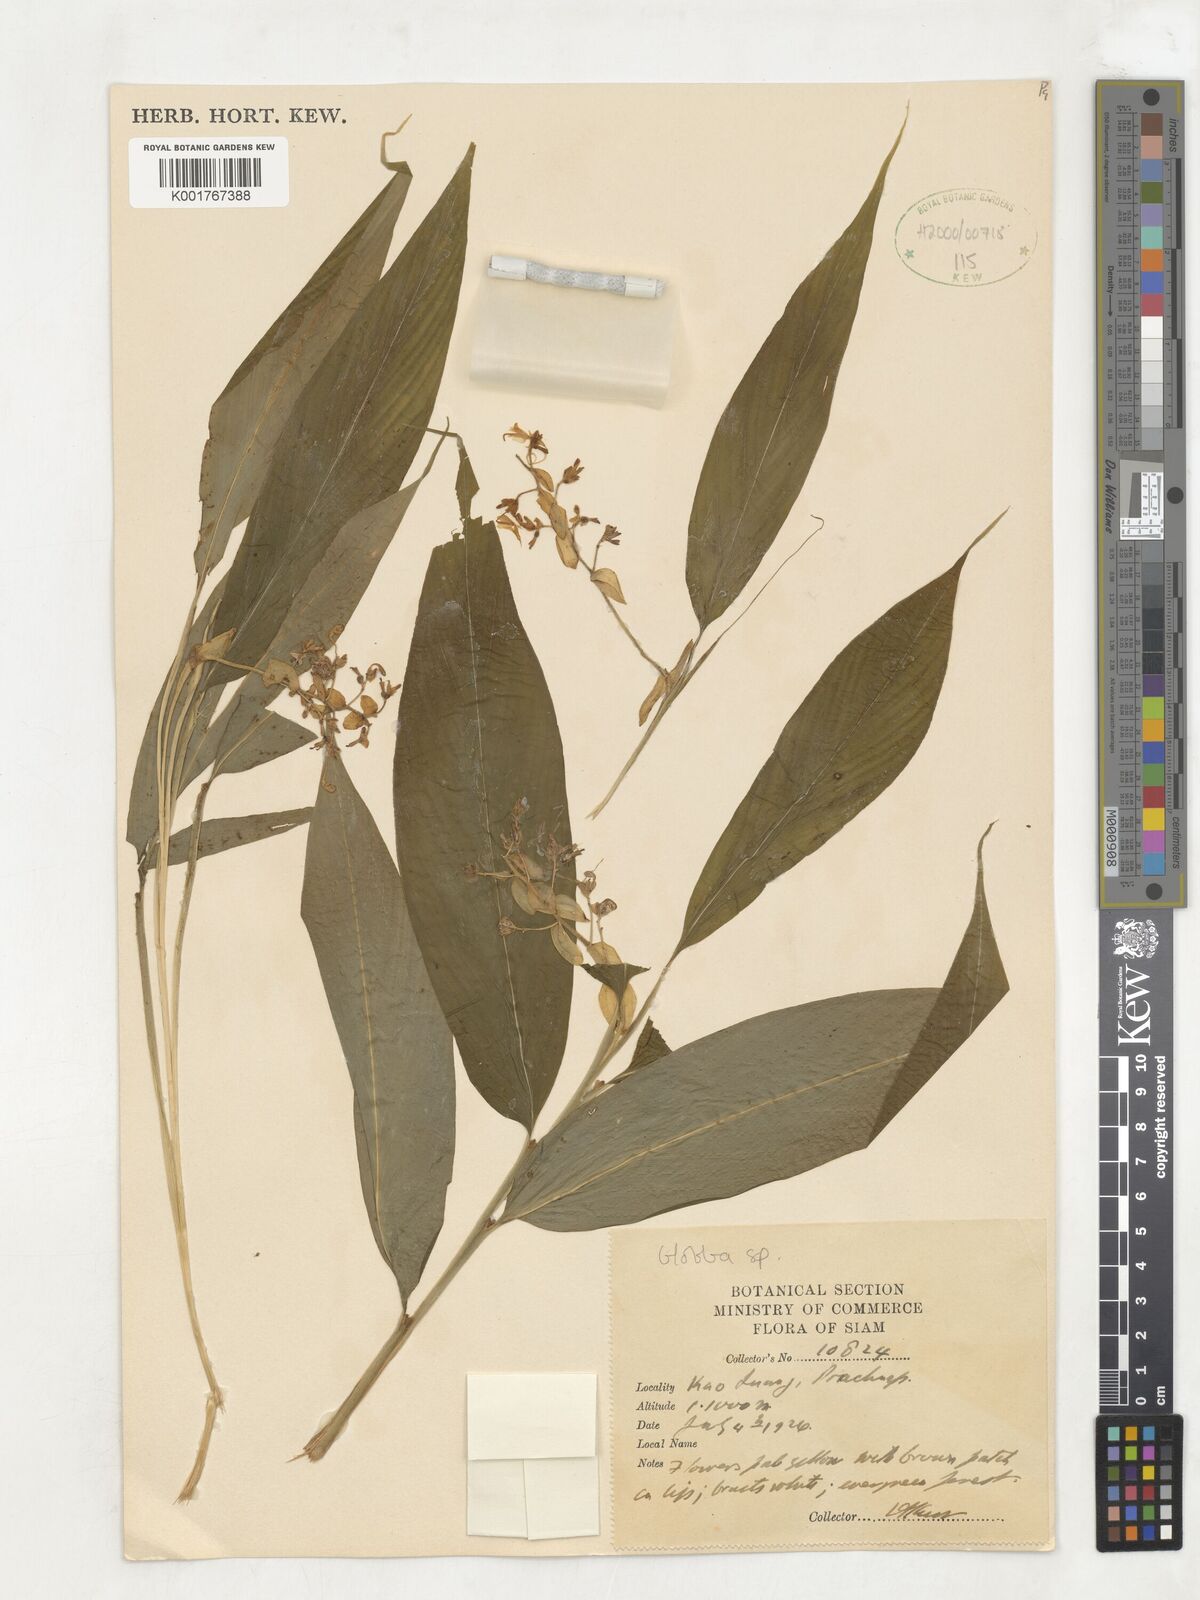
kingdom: Plantae
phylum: Tracheophyta
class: Liliopsida
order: Zingiberales
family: Zingiberaceae
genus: Globba
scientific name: Globba
